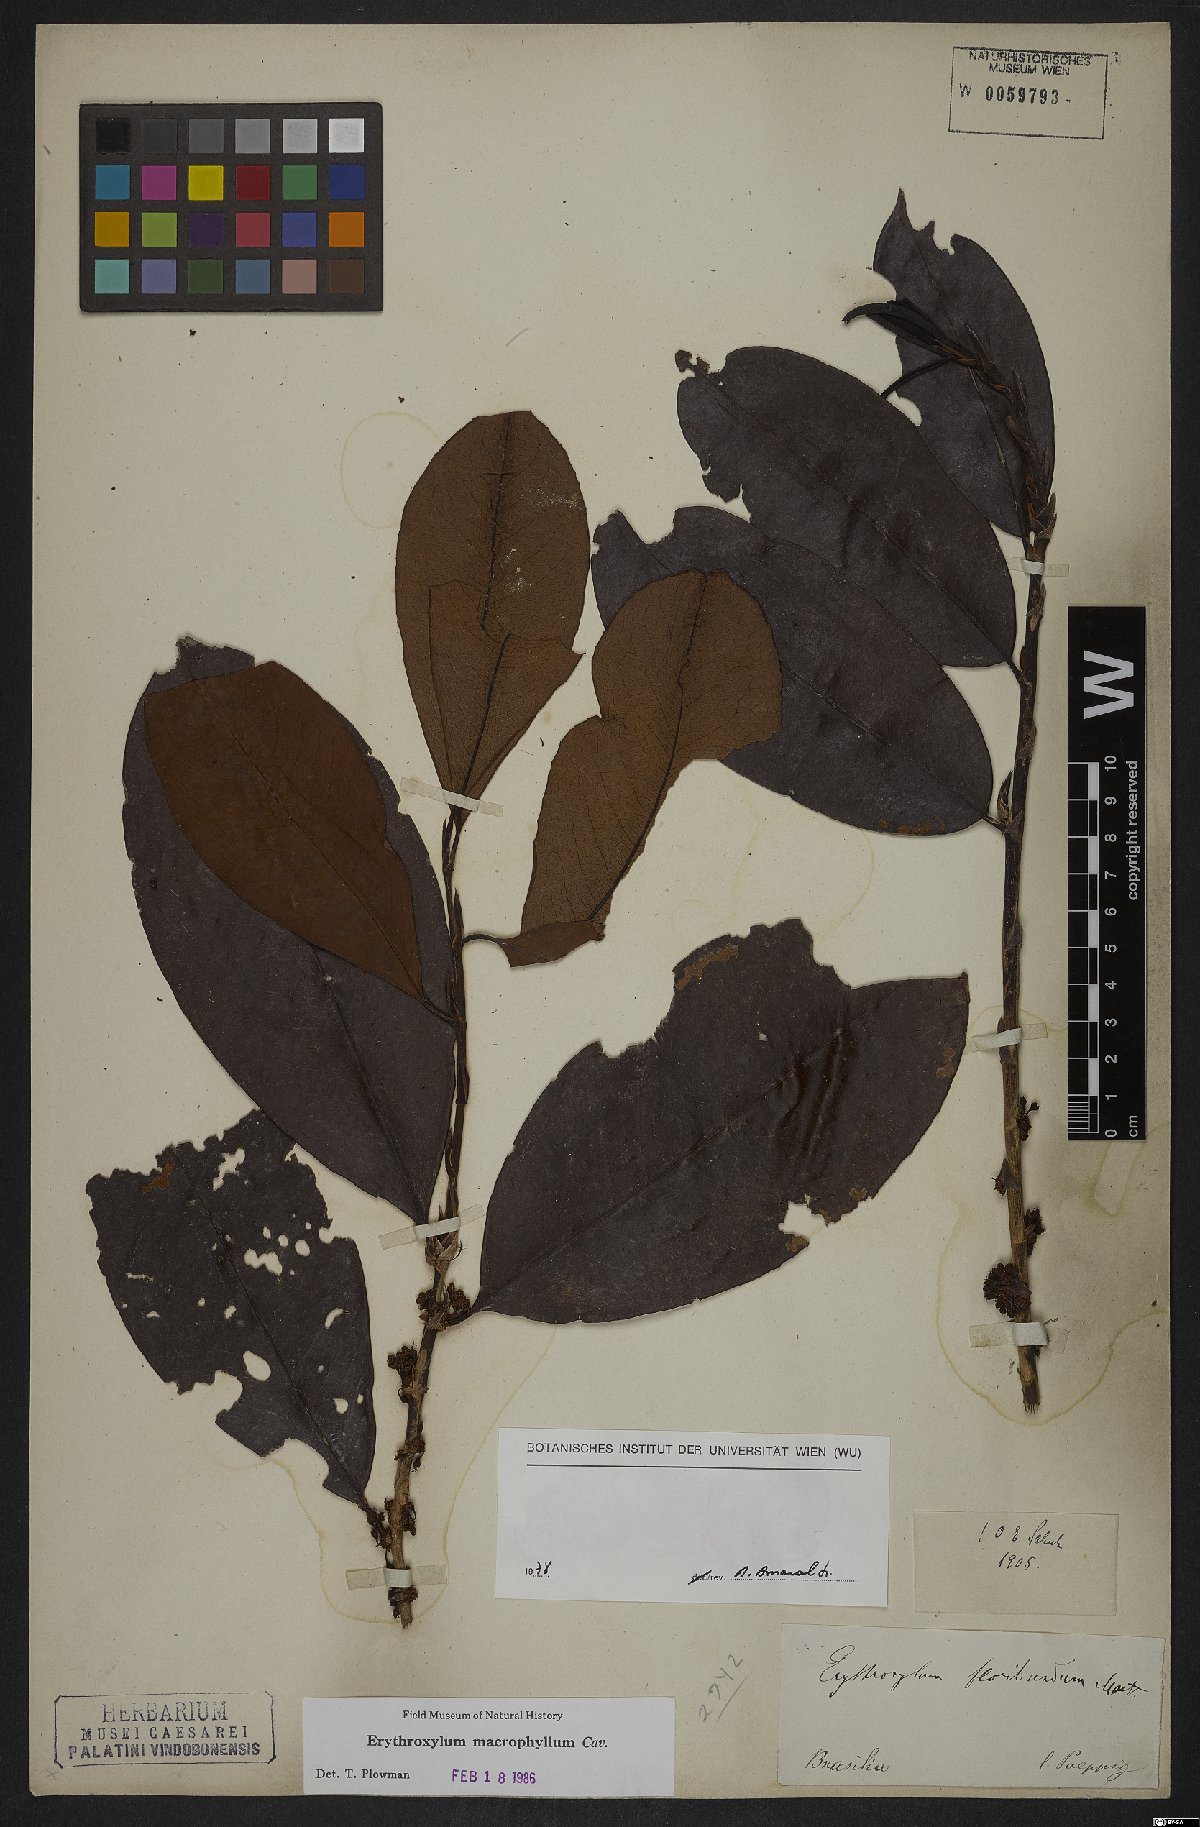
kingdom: Plantae
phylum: Tracheophyta
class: Magnoliopsida
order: Malpighiales
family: Erythroxylaceae
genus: Erythroxylum
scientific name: Erythroxylum macrophyllum
